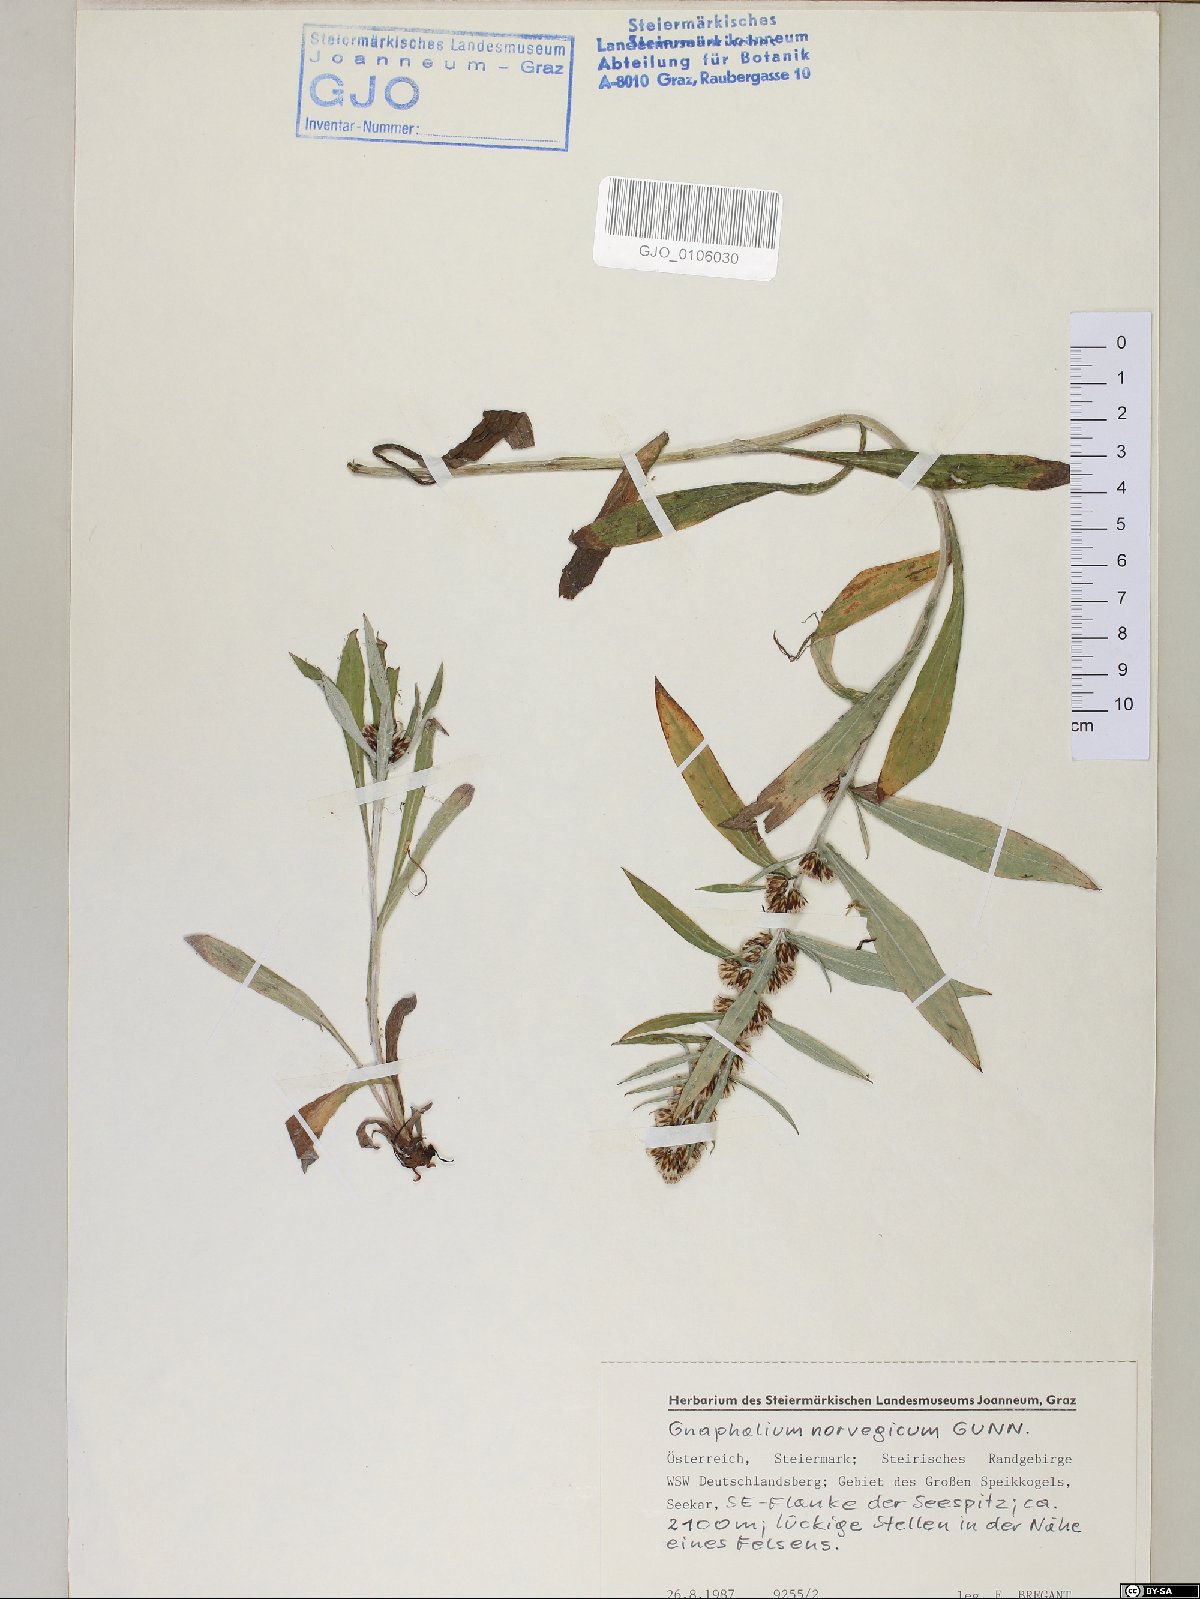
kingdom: Plantae
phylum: Tracheophyta
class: Magnoliopsida
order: Asterales
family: Asteraceae
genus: Omalotheca
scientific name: Omalotheca norvegica
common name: Norwegian arctic-cudweed
